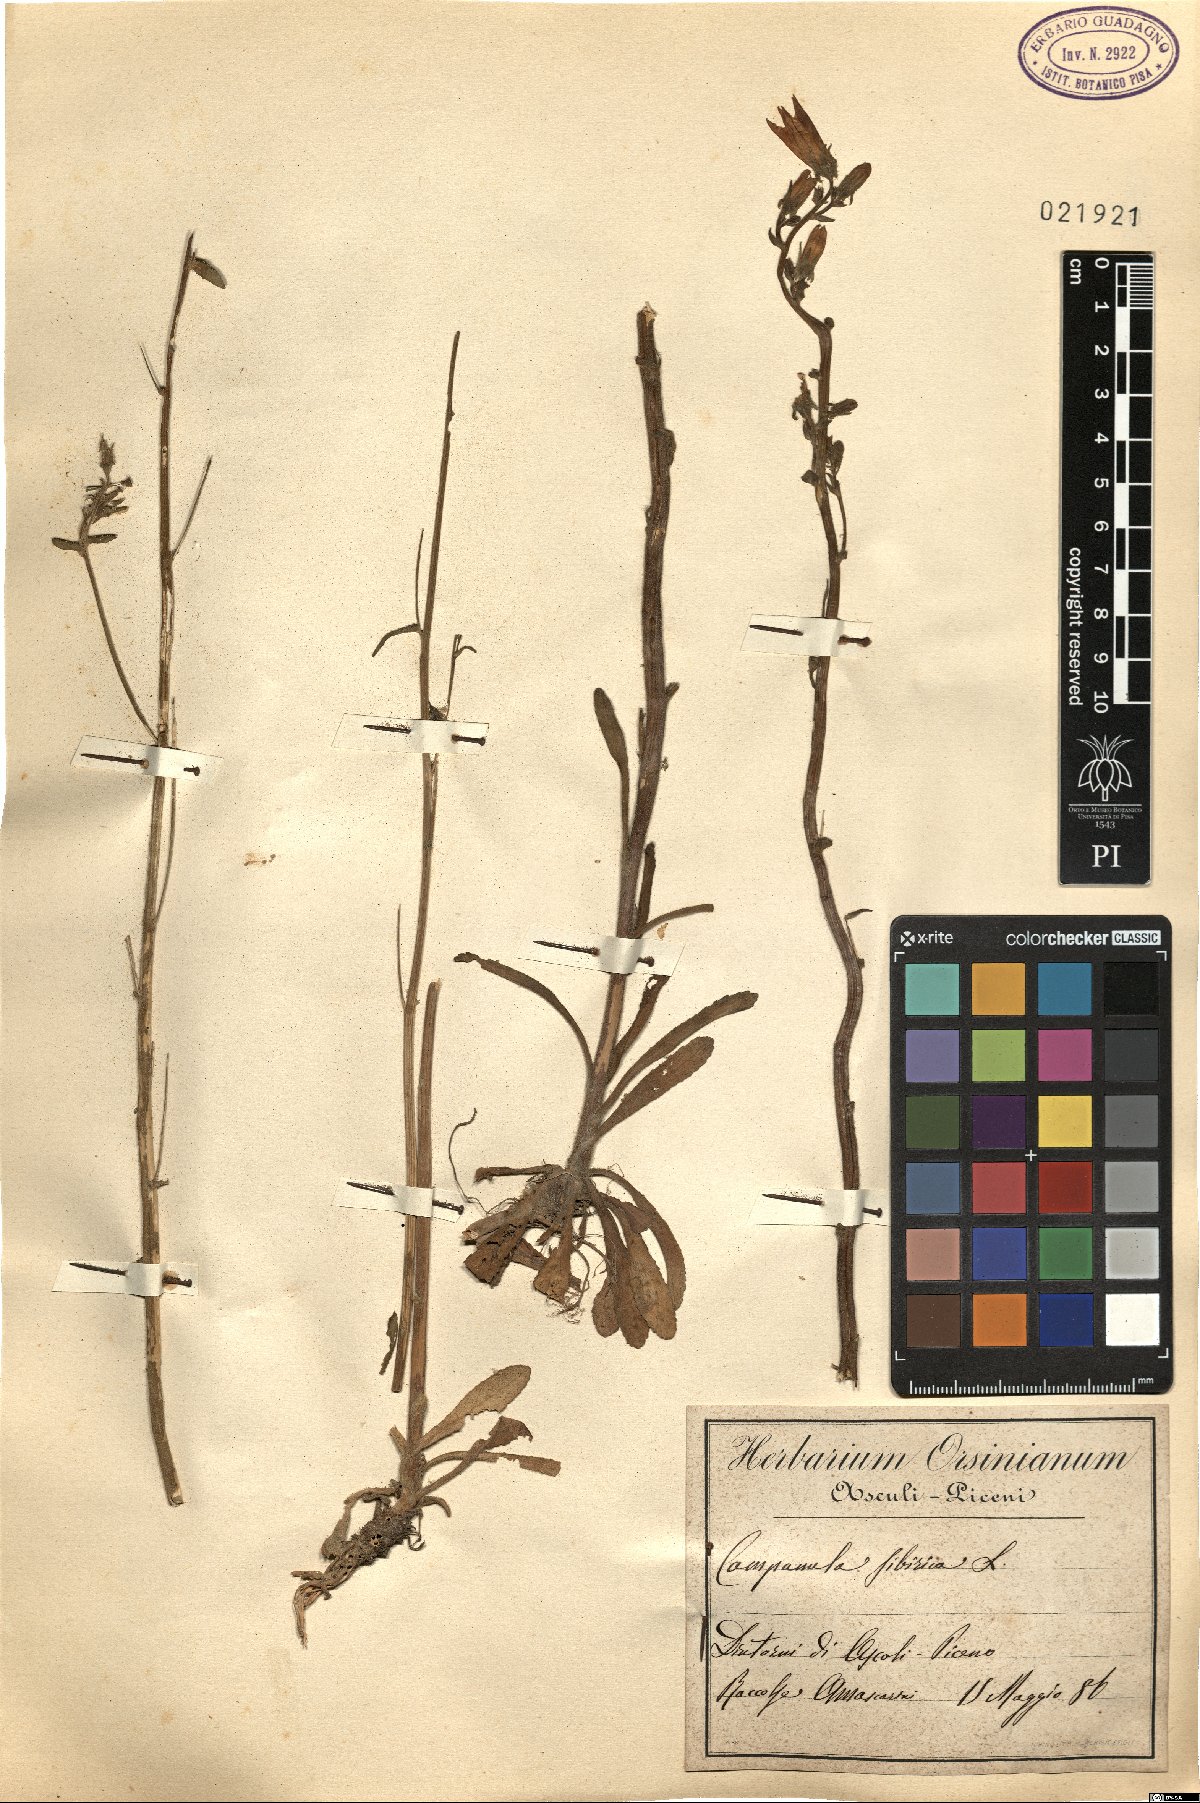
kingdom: Plantae
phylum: Tracheophyta
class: Magnoliopsida
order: Asterales
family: Campanulaceae
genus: Campanula
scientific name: Campanula sibirica
